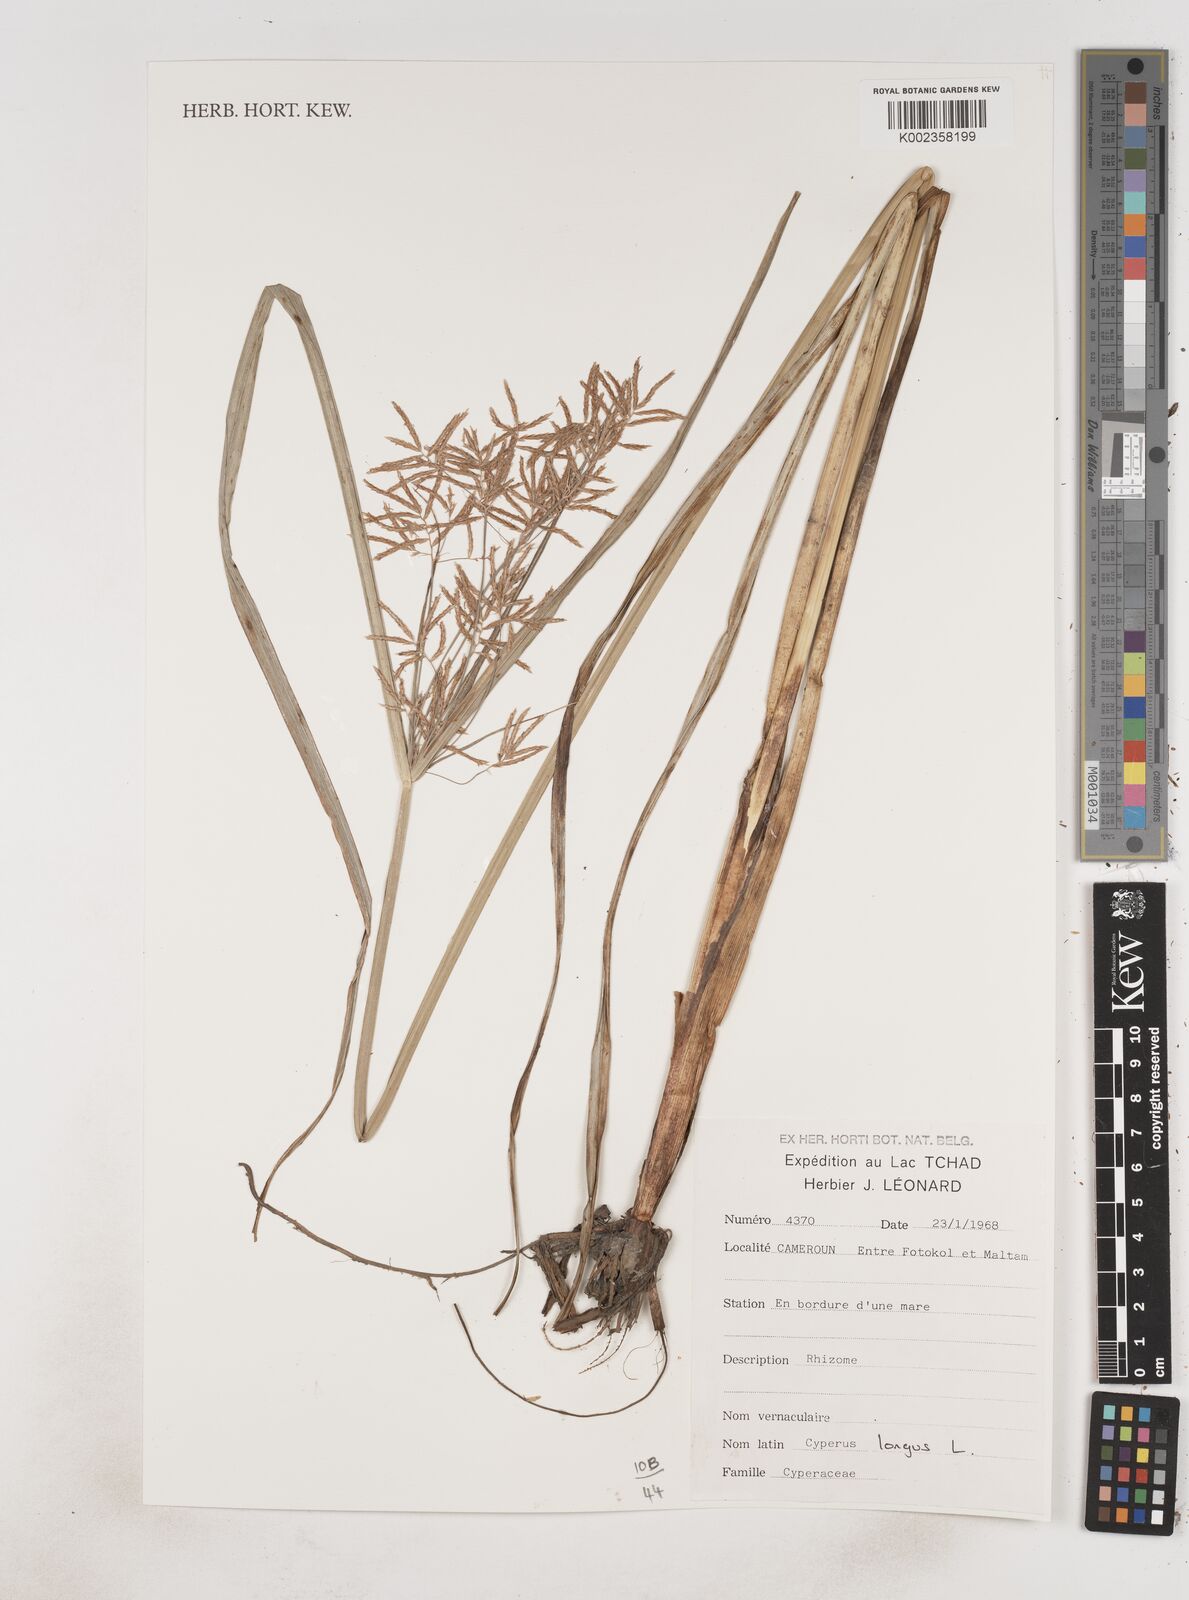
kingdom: Plantae
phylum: Tracheophyta
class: Liliopsida
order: Poales
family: Cyperaceae
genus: Cyperus
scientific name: Cyperus longus
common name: Galingale
